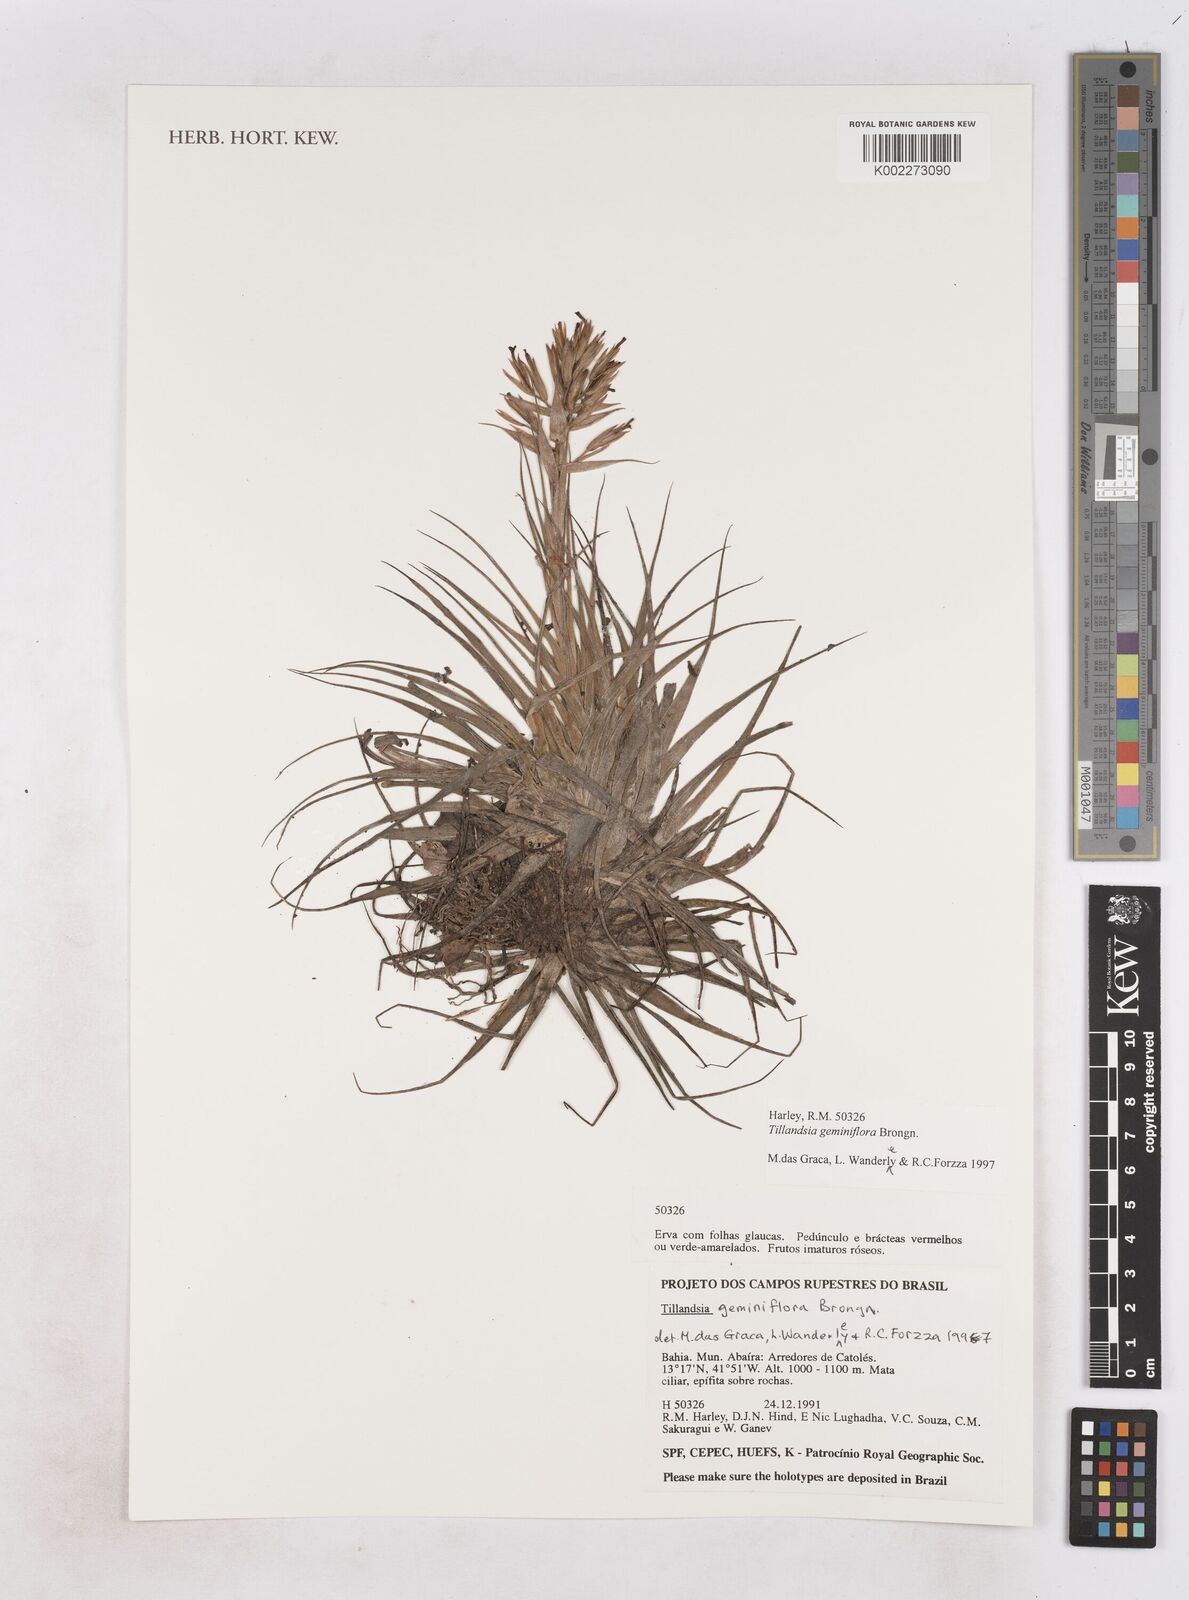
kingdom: Plantae
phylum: Tracheophyta
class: Liliopsida
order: Poales
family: Bromeliaceae
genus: Tillandsia
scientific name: Tillandsia geminiflora
